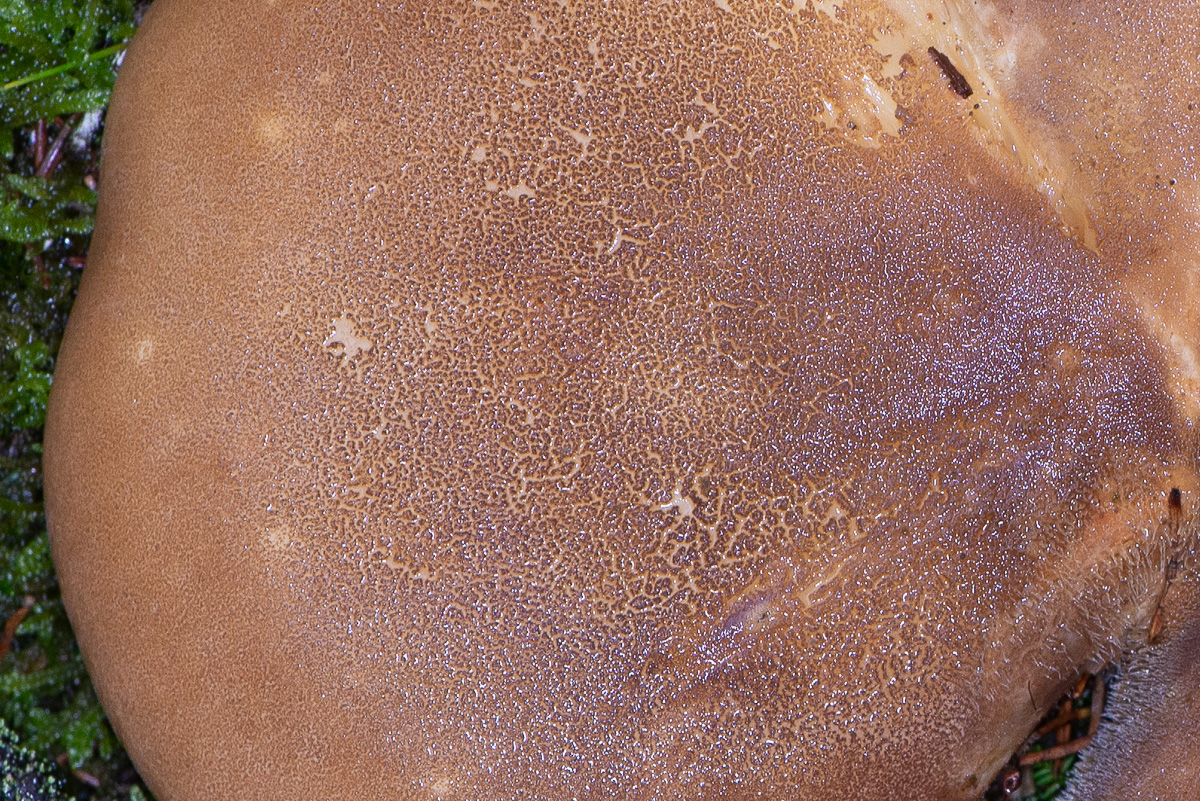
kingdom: Fungi
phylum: Basidiomycota
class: Agaricomycetes
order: Boletales
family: Tapinellaceae
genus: Tapinella
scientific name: Tapinella atrotomentosa
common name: sortfiltet viftesvamp
